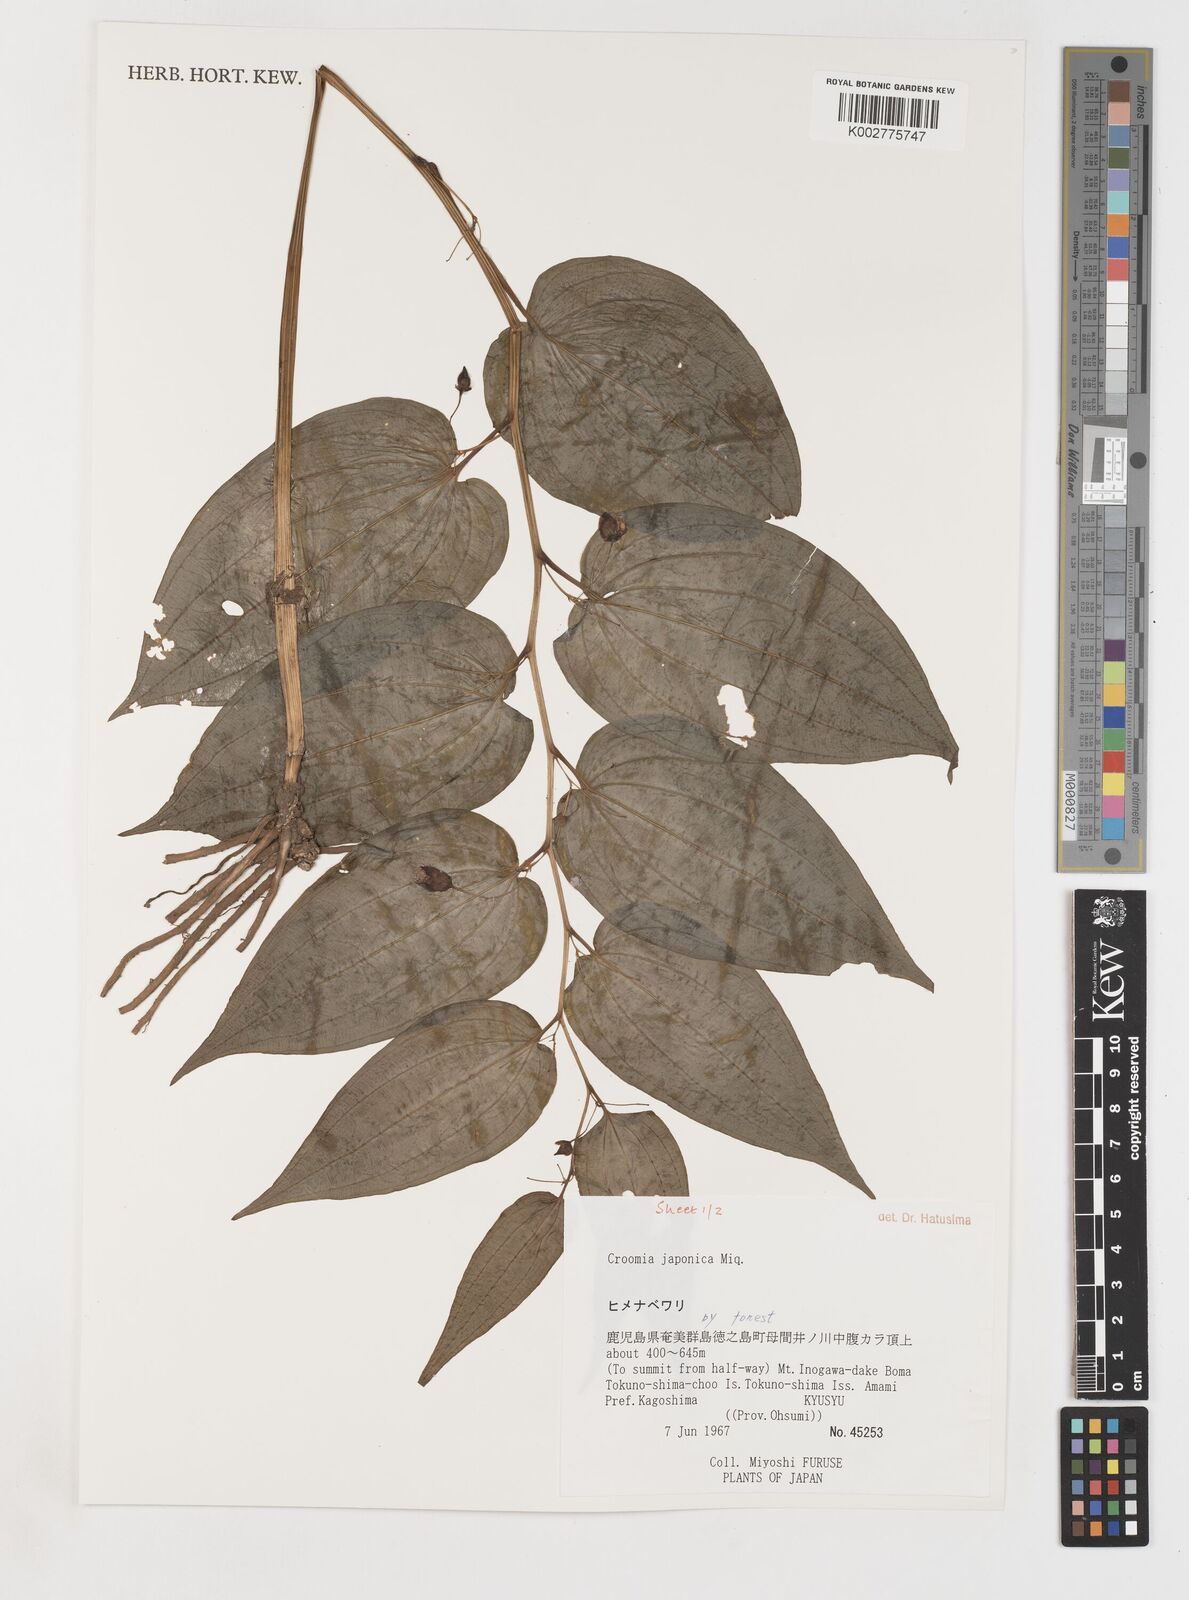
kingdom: Plantae
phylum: Tracheophyta
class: Liliopsida
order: Pandanales
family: Stemonaceae
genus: Croomia
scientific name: Croomia japonica
